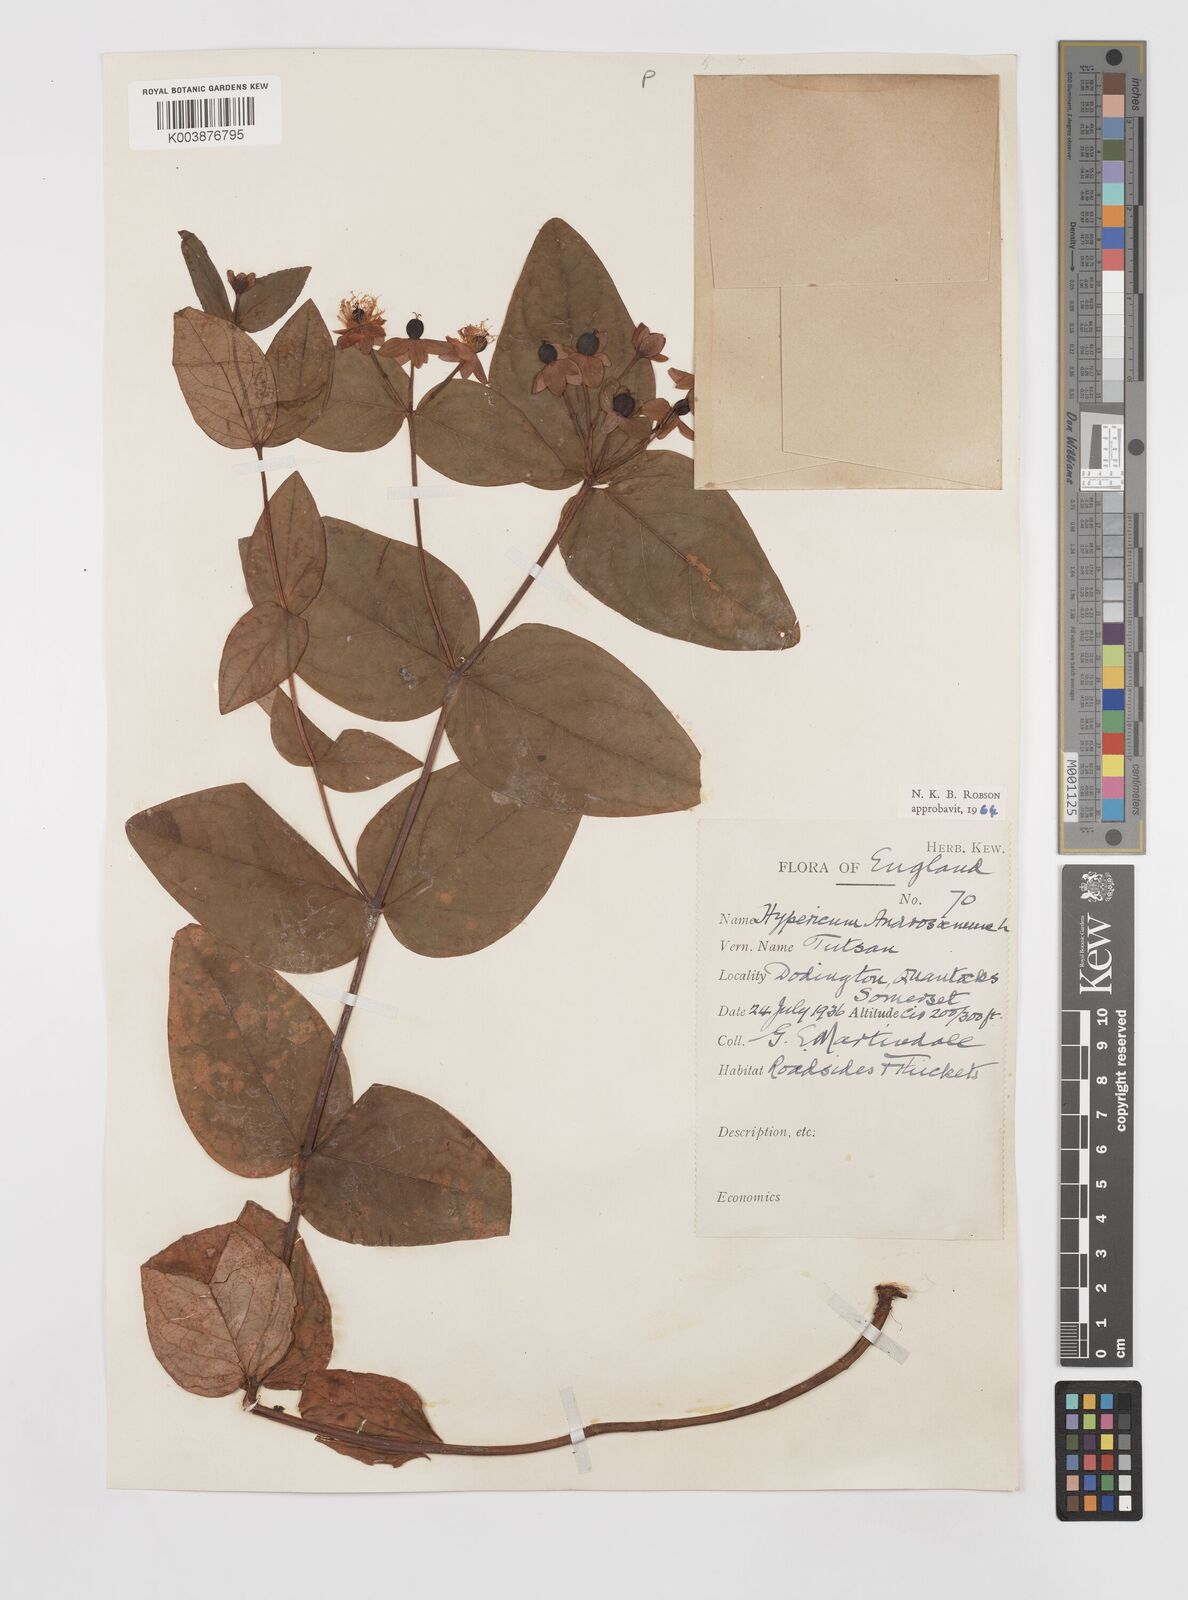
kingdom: Plantae
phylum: Tracheophyta
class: Magnoliopsida
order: Malpighiales
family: Hypericaceae
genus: Hypericum
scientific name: Hypericum androsaemum
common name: Sweet-amber
